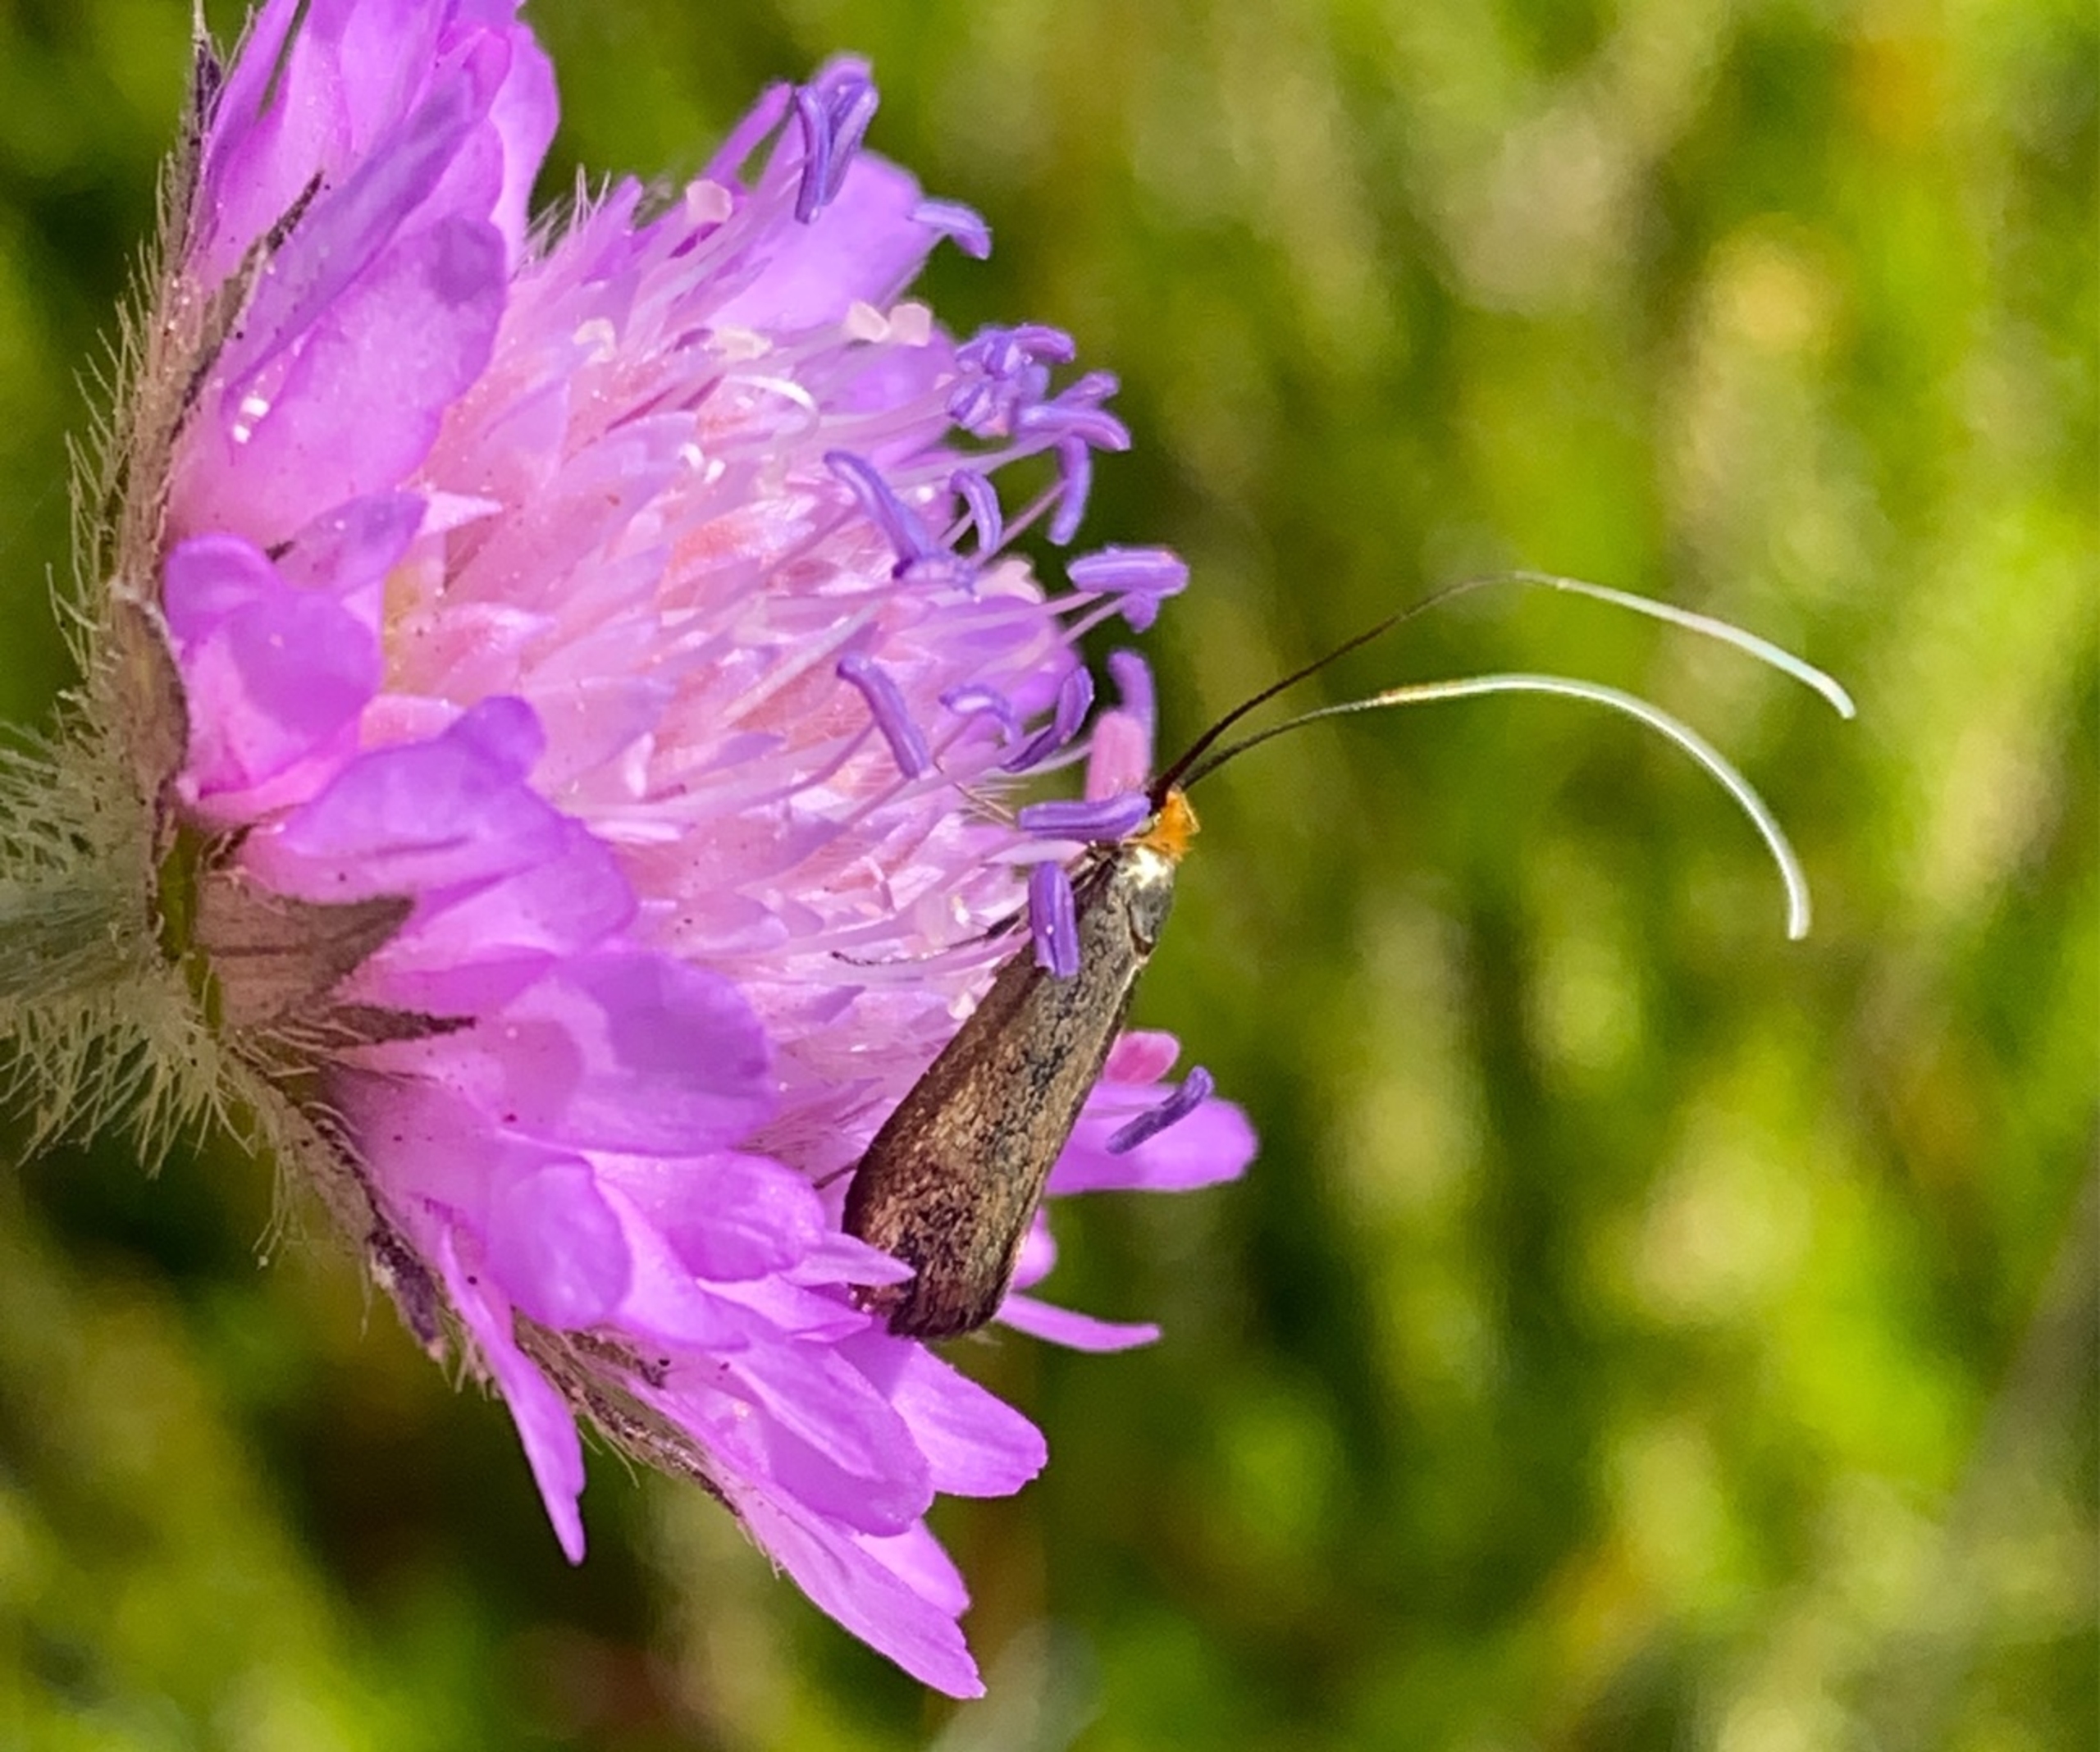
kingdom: Animalia
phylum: Arthropoda
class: Insecta
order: Lepidoptera
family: Adelidae
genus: Nemophora
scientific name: Nemophora cupriacella
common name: Blåhatlanghornsmøl
